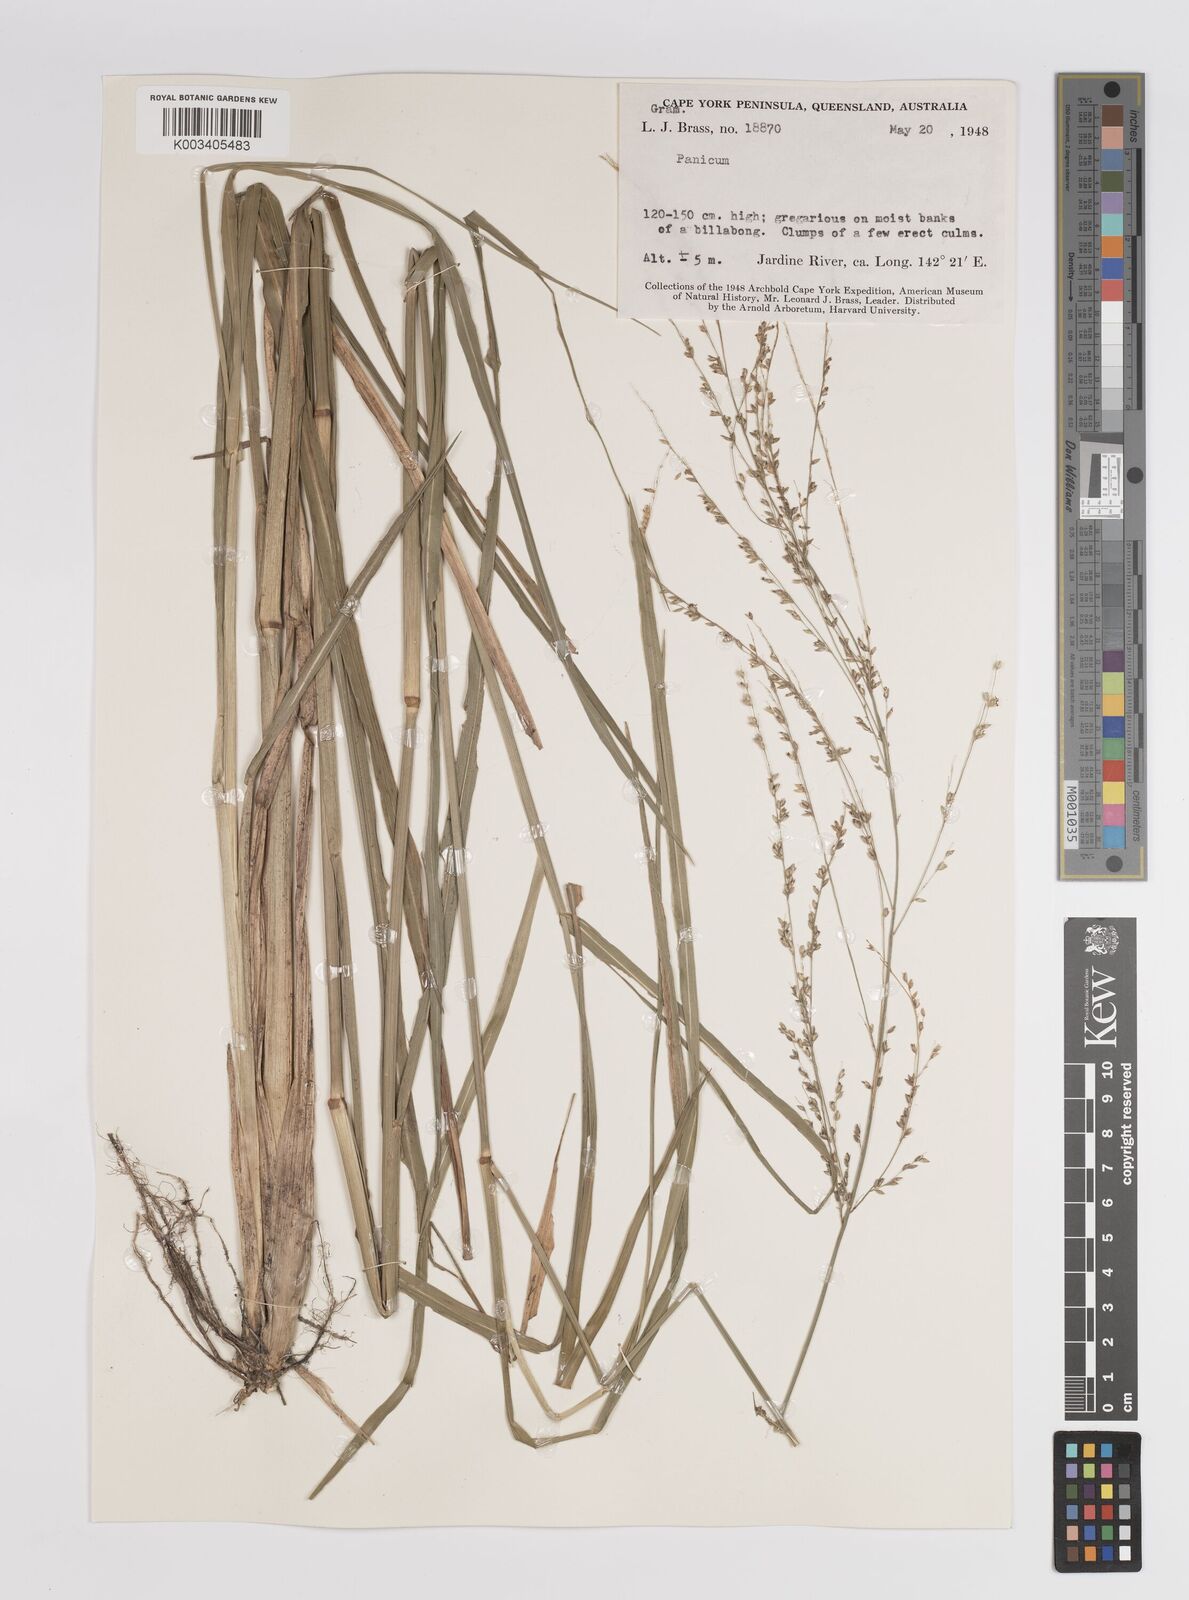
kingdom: Plantae
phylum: Tracheophyta
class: Liliopsida
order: Poales
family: Poaceae
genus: Panicum
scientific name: Panicum
